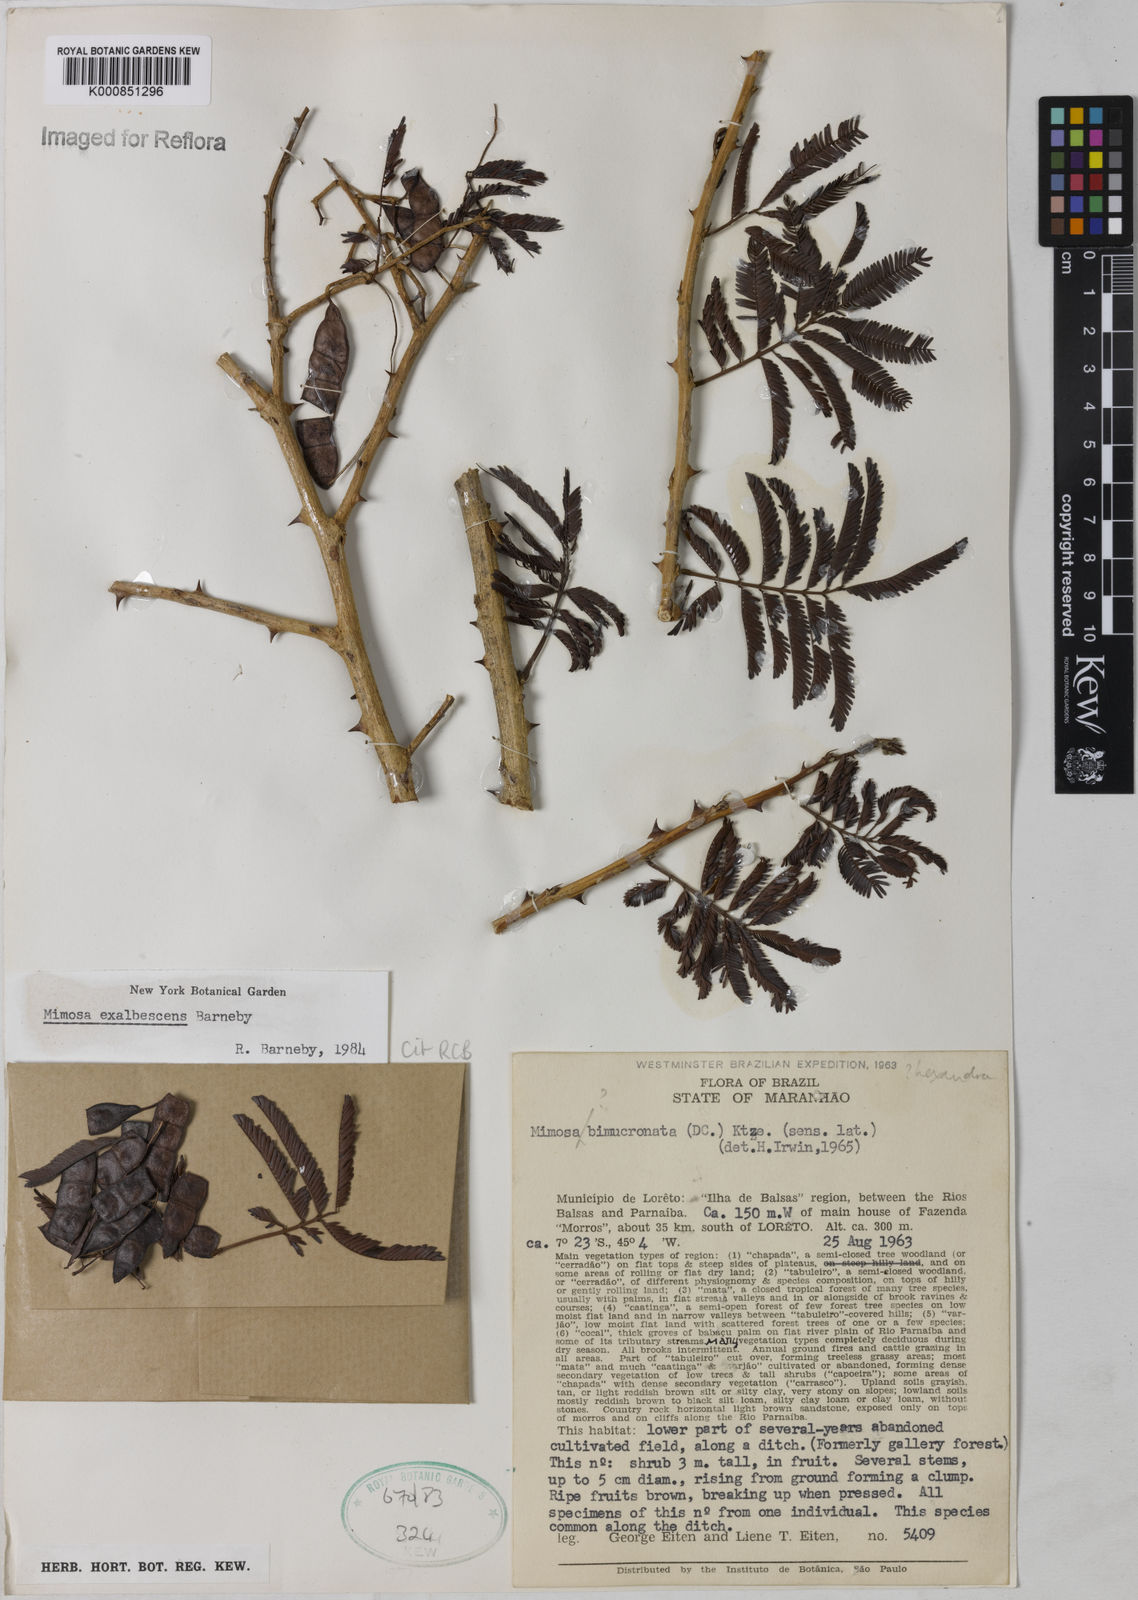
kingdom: Plantae
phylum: Tracheophyta
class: Magnoliopsida
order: Fabales
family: Fabaceae
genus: Mimosa
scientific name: Mimosa exalbescens
